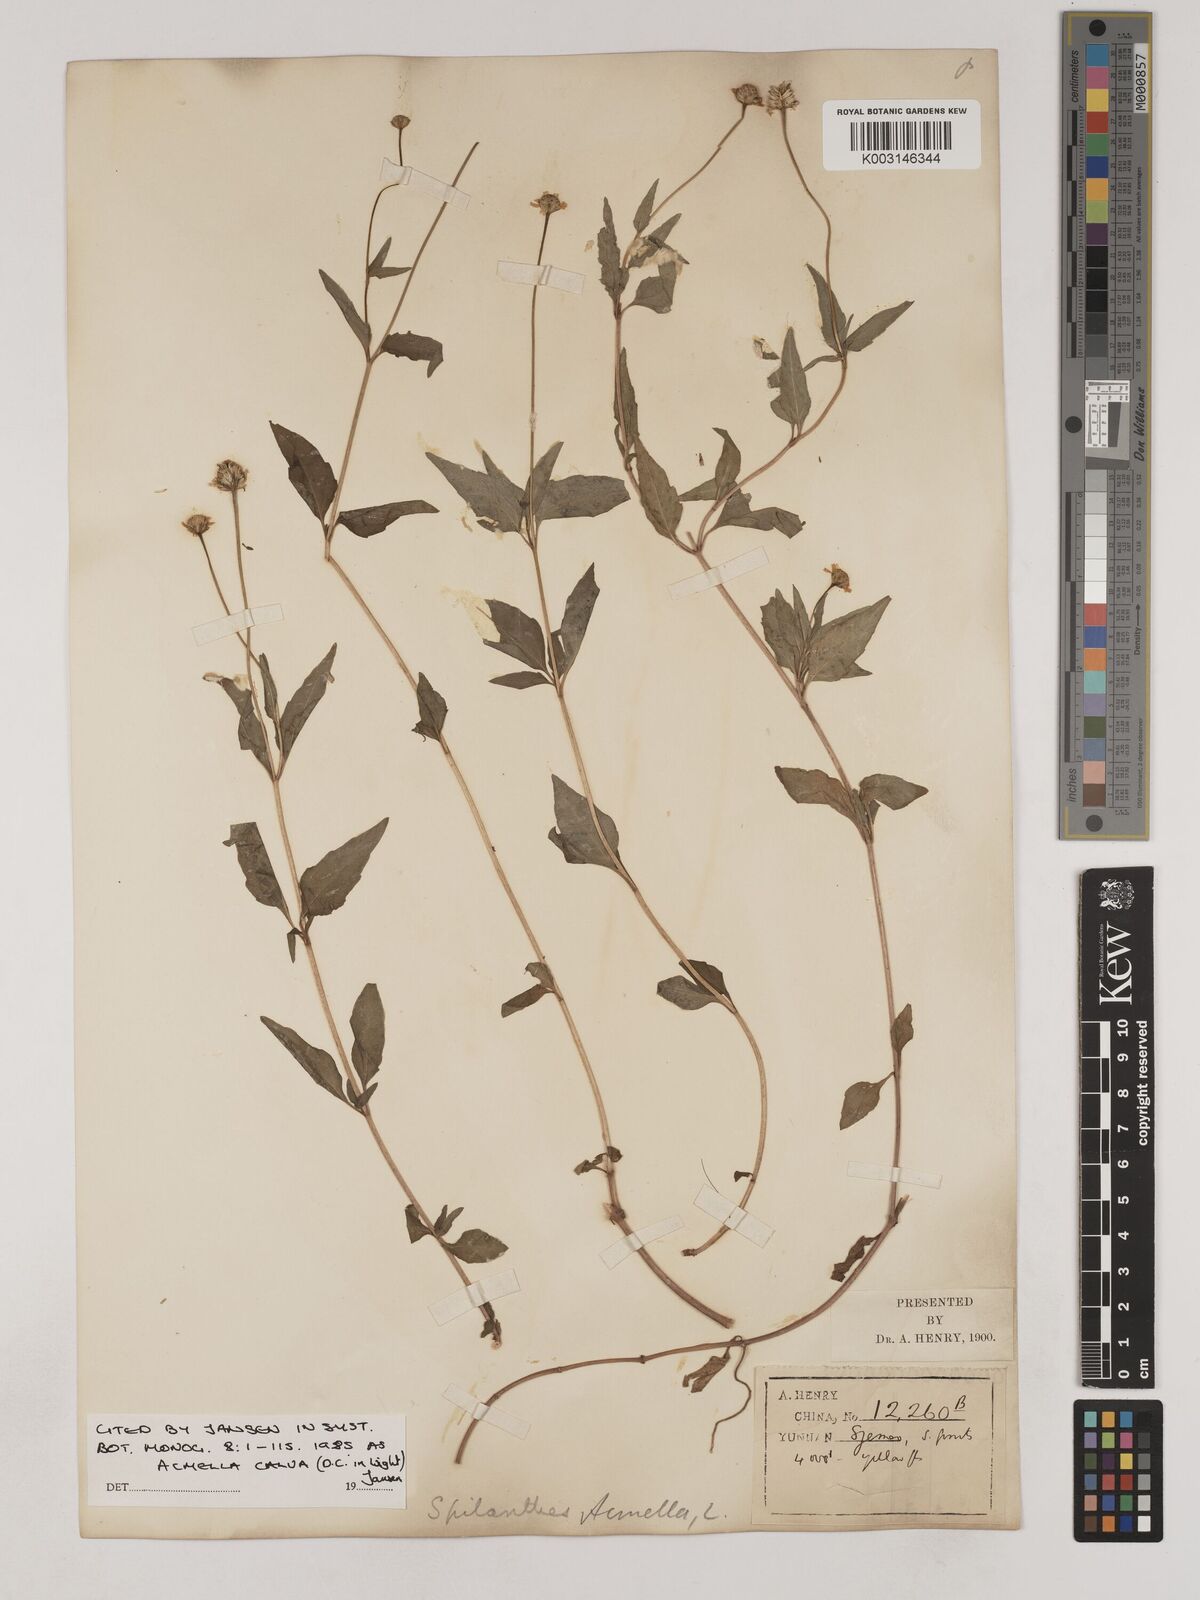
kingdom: Plantae
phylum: Tracheophyta
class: Magnoliopsida
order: Asterales
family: Asteraceae
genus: Acmella
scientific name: Acmella calva
